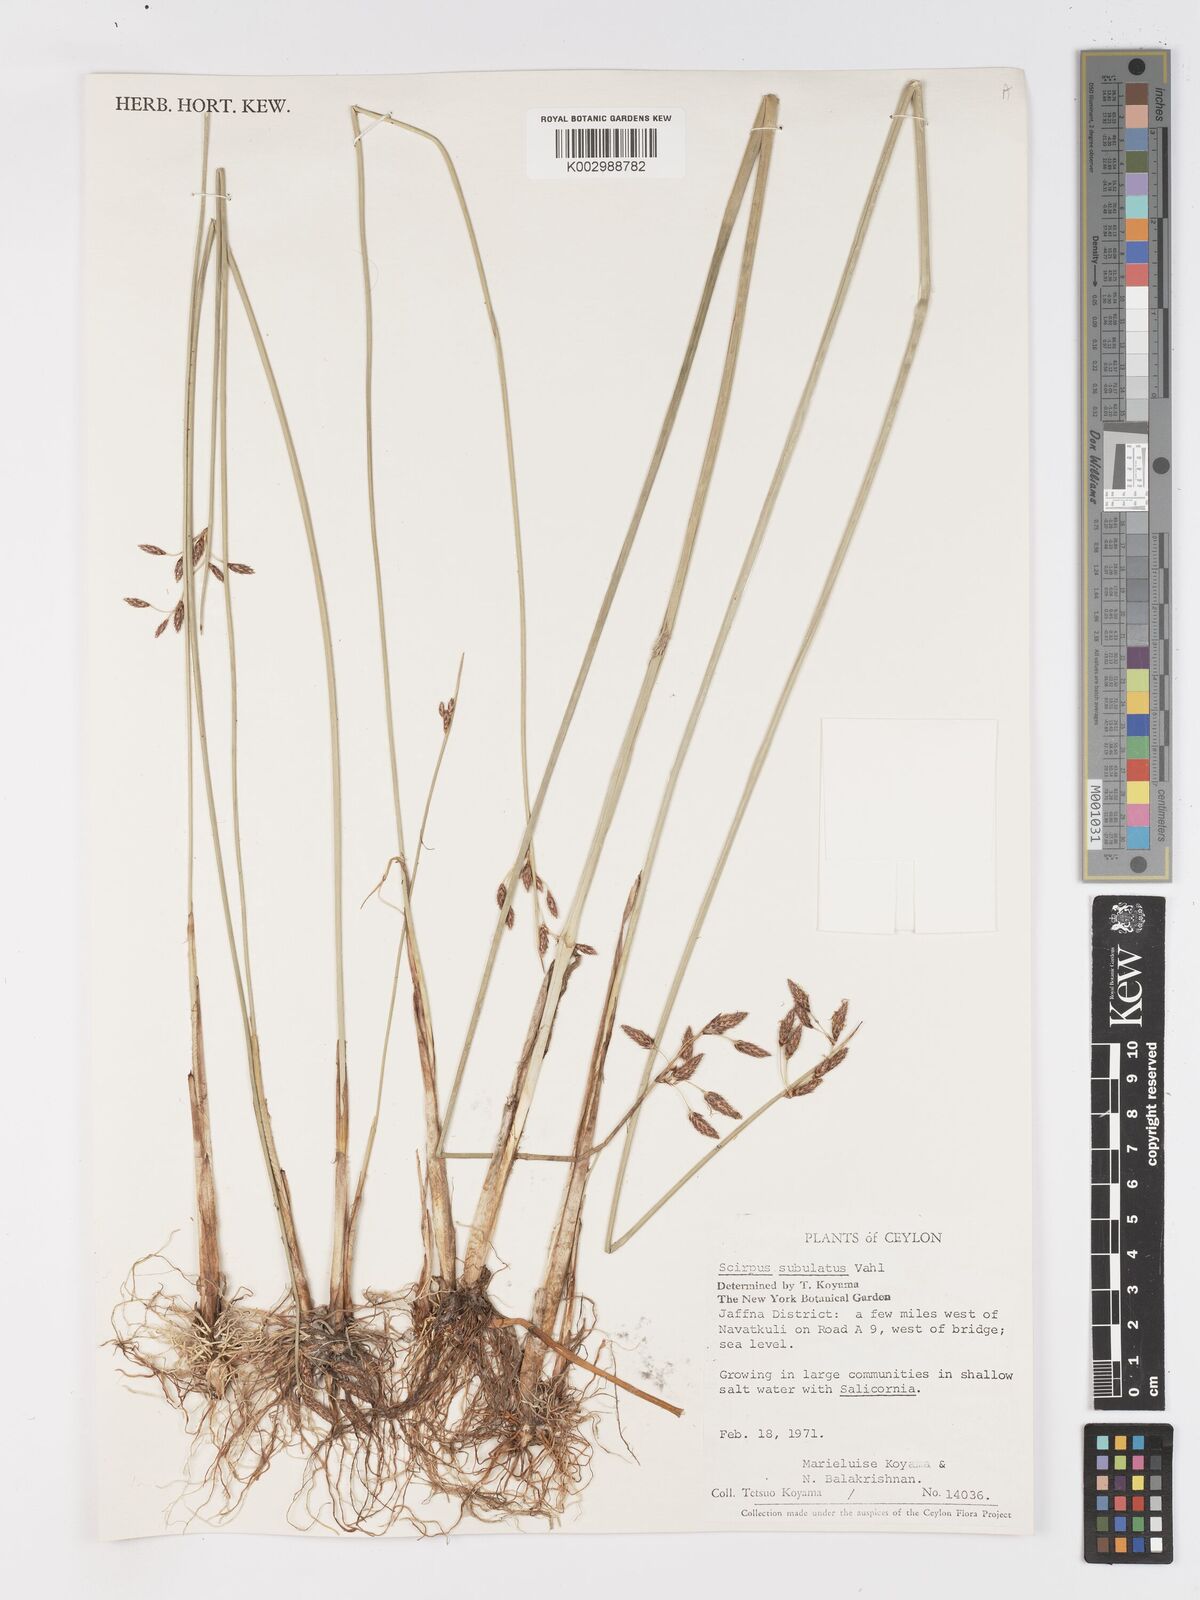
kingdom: Plantae
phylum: Tracheophyta
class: Liliopsida
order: Poales
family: Cyperaceae
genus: Schoenoplectus
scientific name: Schoenoplectus subulatus
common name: Coast club-rush
